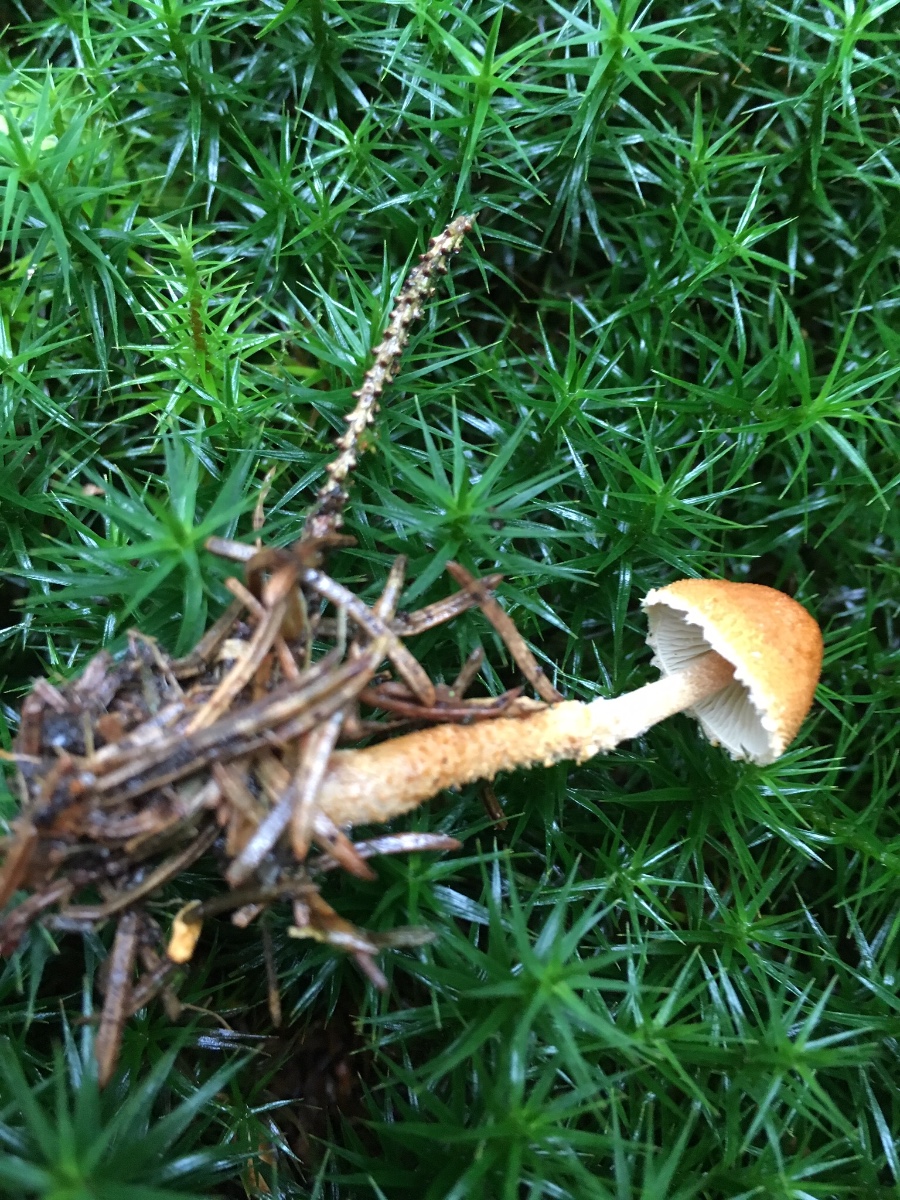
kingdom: Fungi
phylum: Basidiomycota
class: Agaricomycetes
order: Agaricales
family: Tricholomataceae
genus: Cystoderma
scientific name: Cystoderma jasonis
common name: gulkødet grynhat
